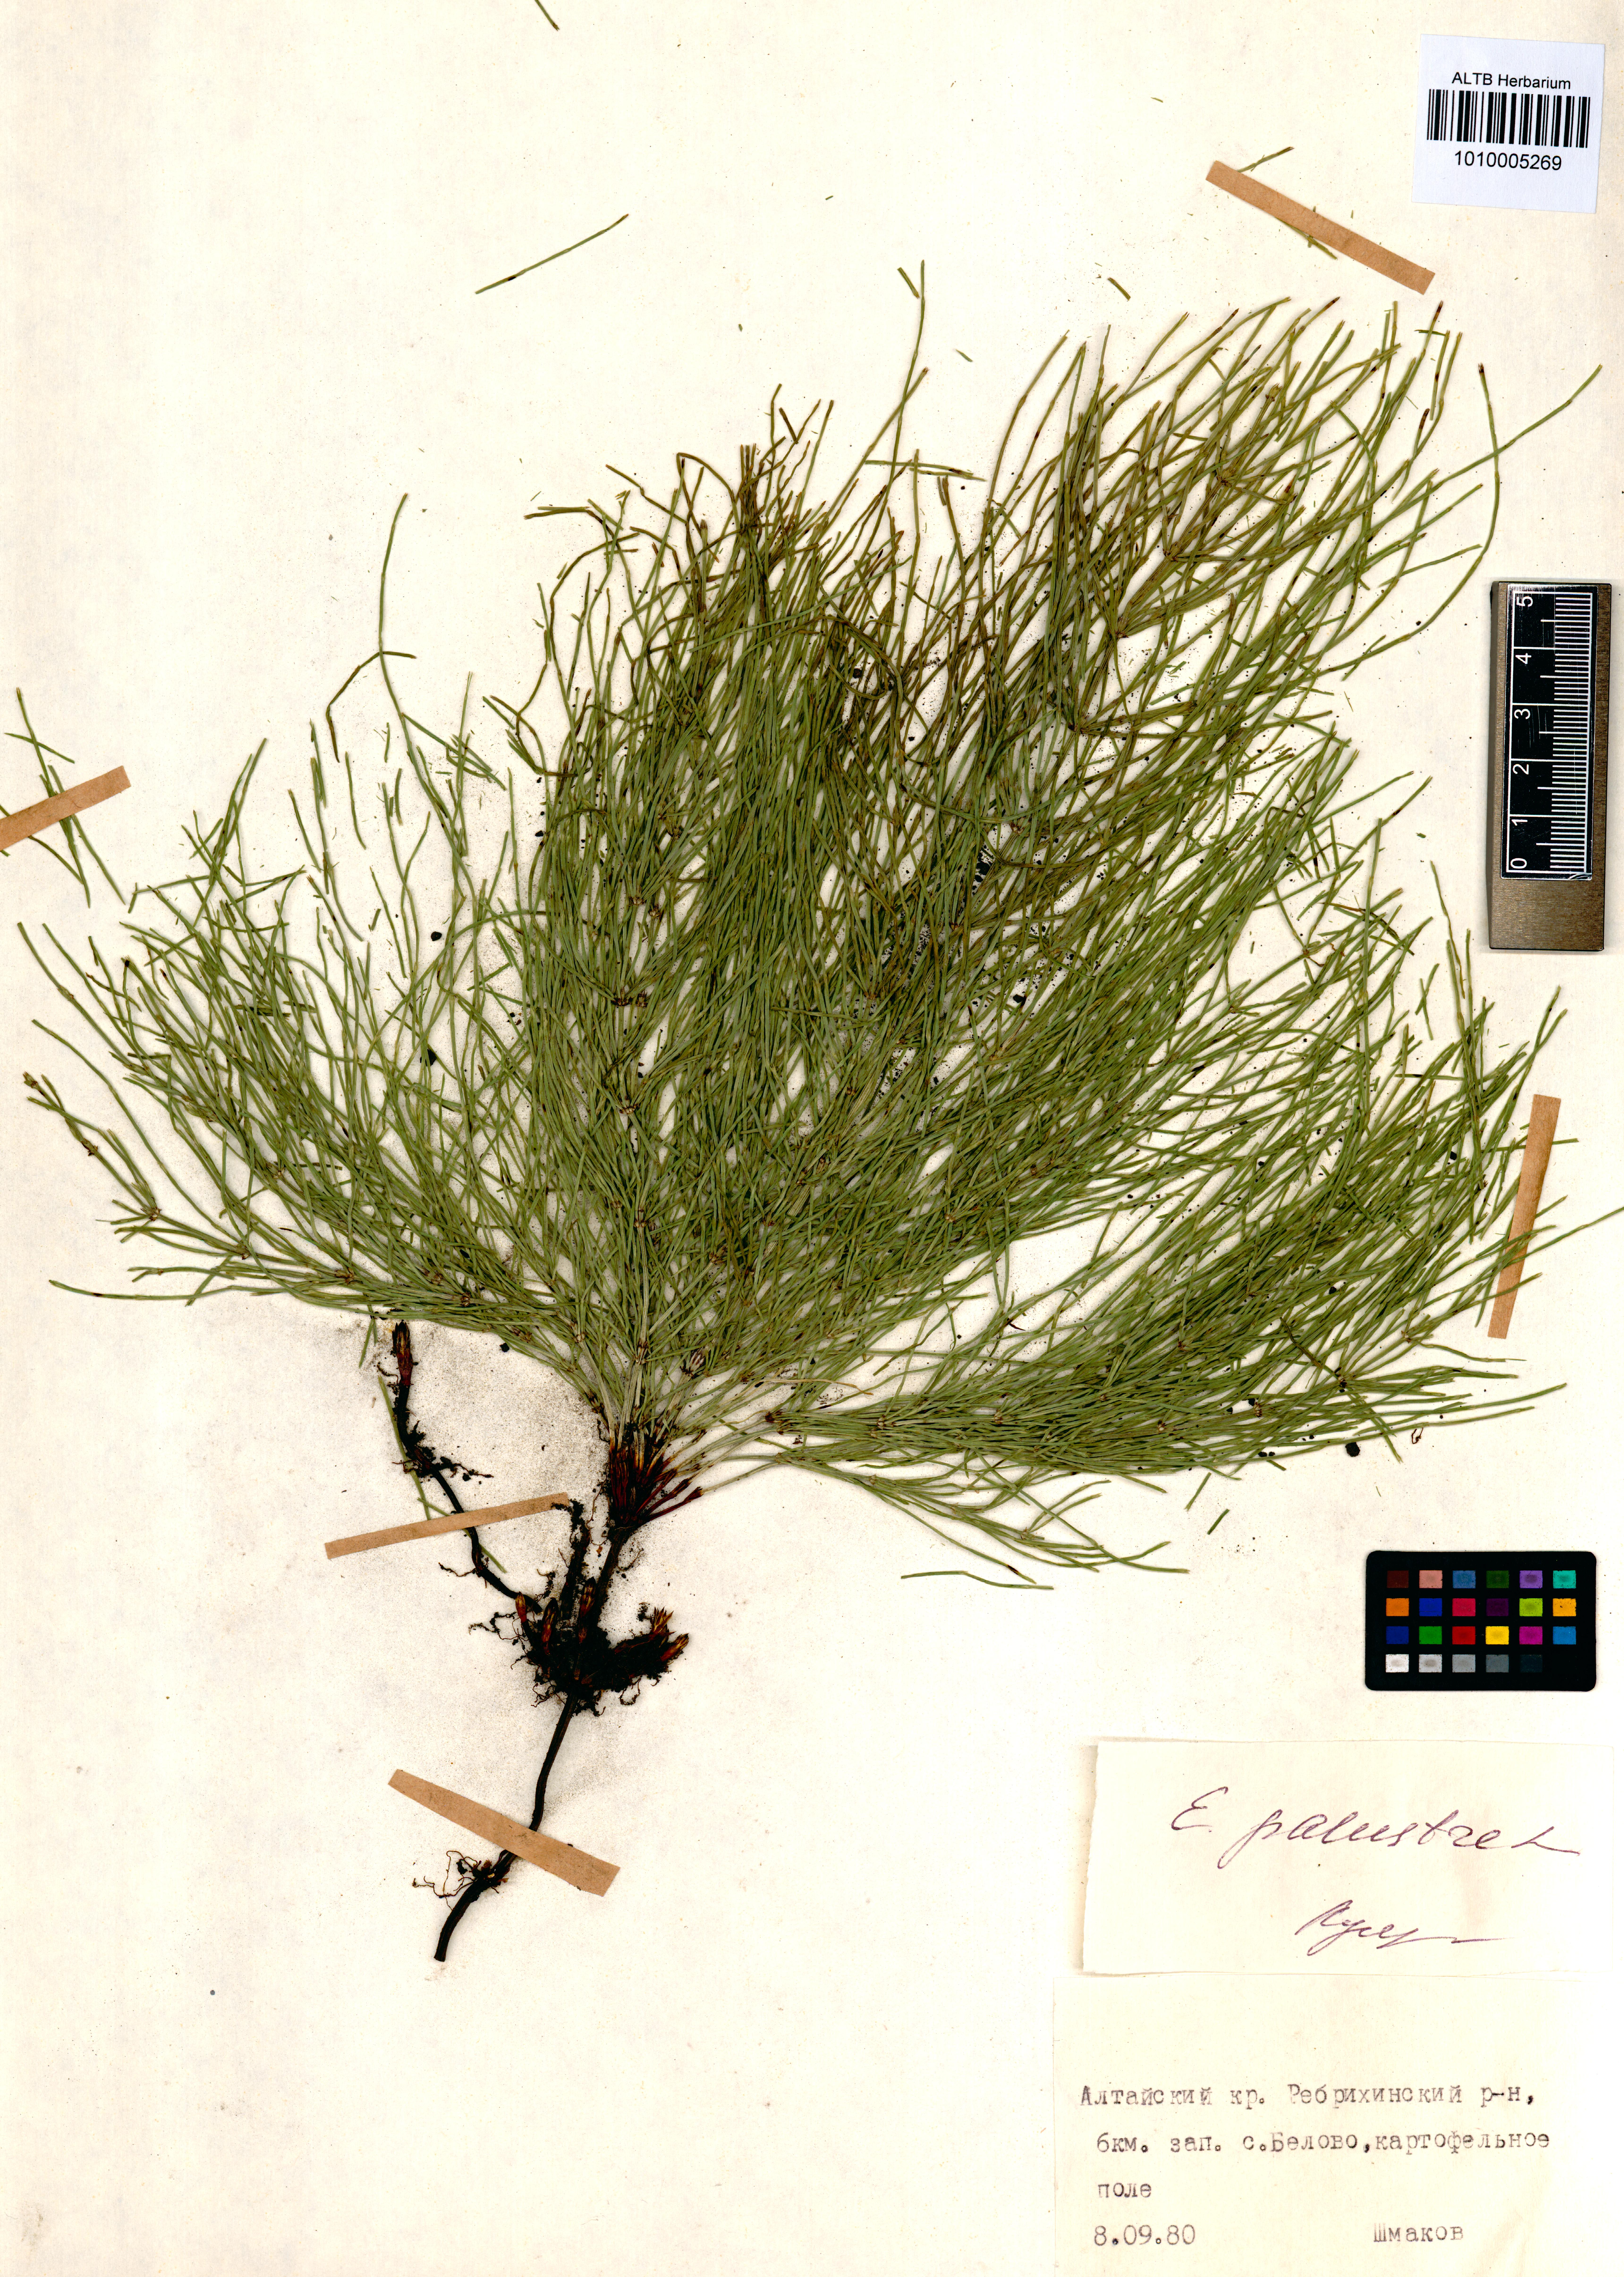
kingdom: Plantae
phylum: Tracheophyta
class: Polypodiopsida
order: Equisetales
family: Equisetaceae
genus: Equisetum
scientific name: Equisetum palustre
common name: Marsh horsetail
